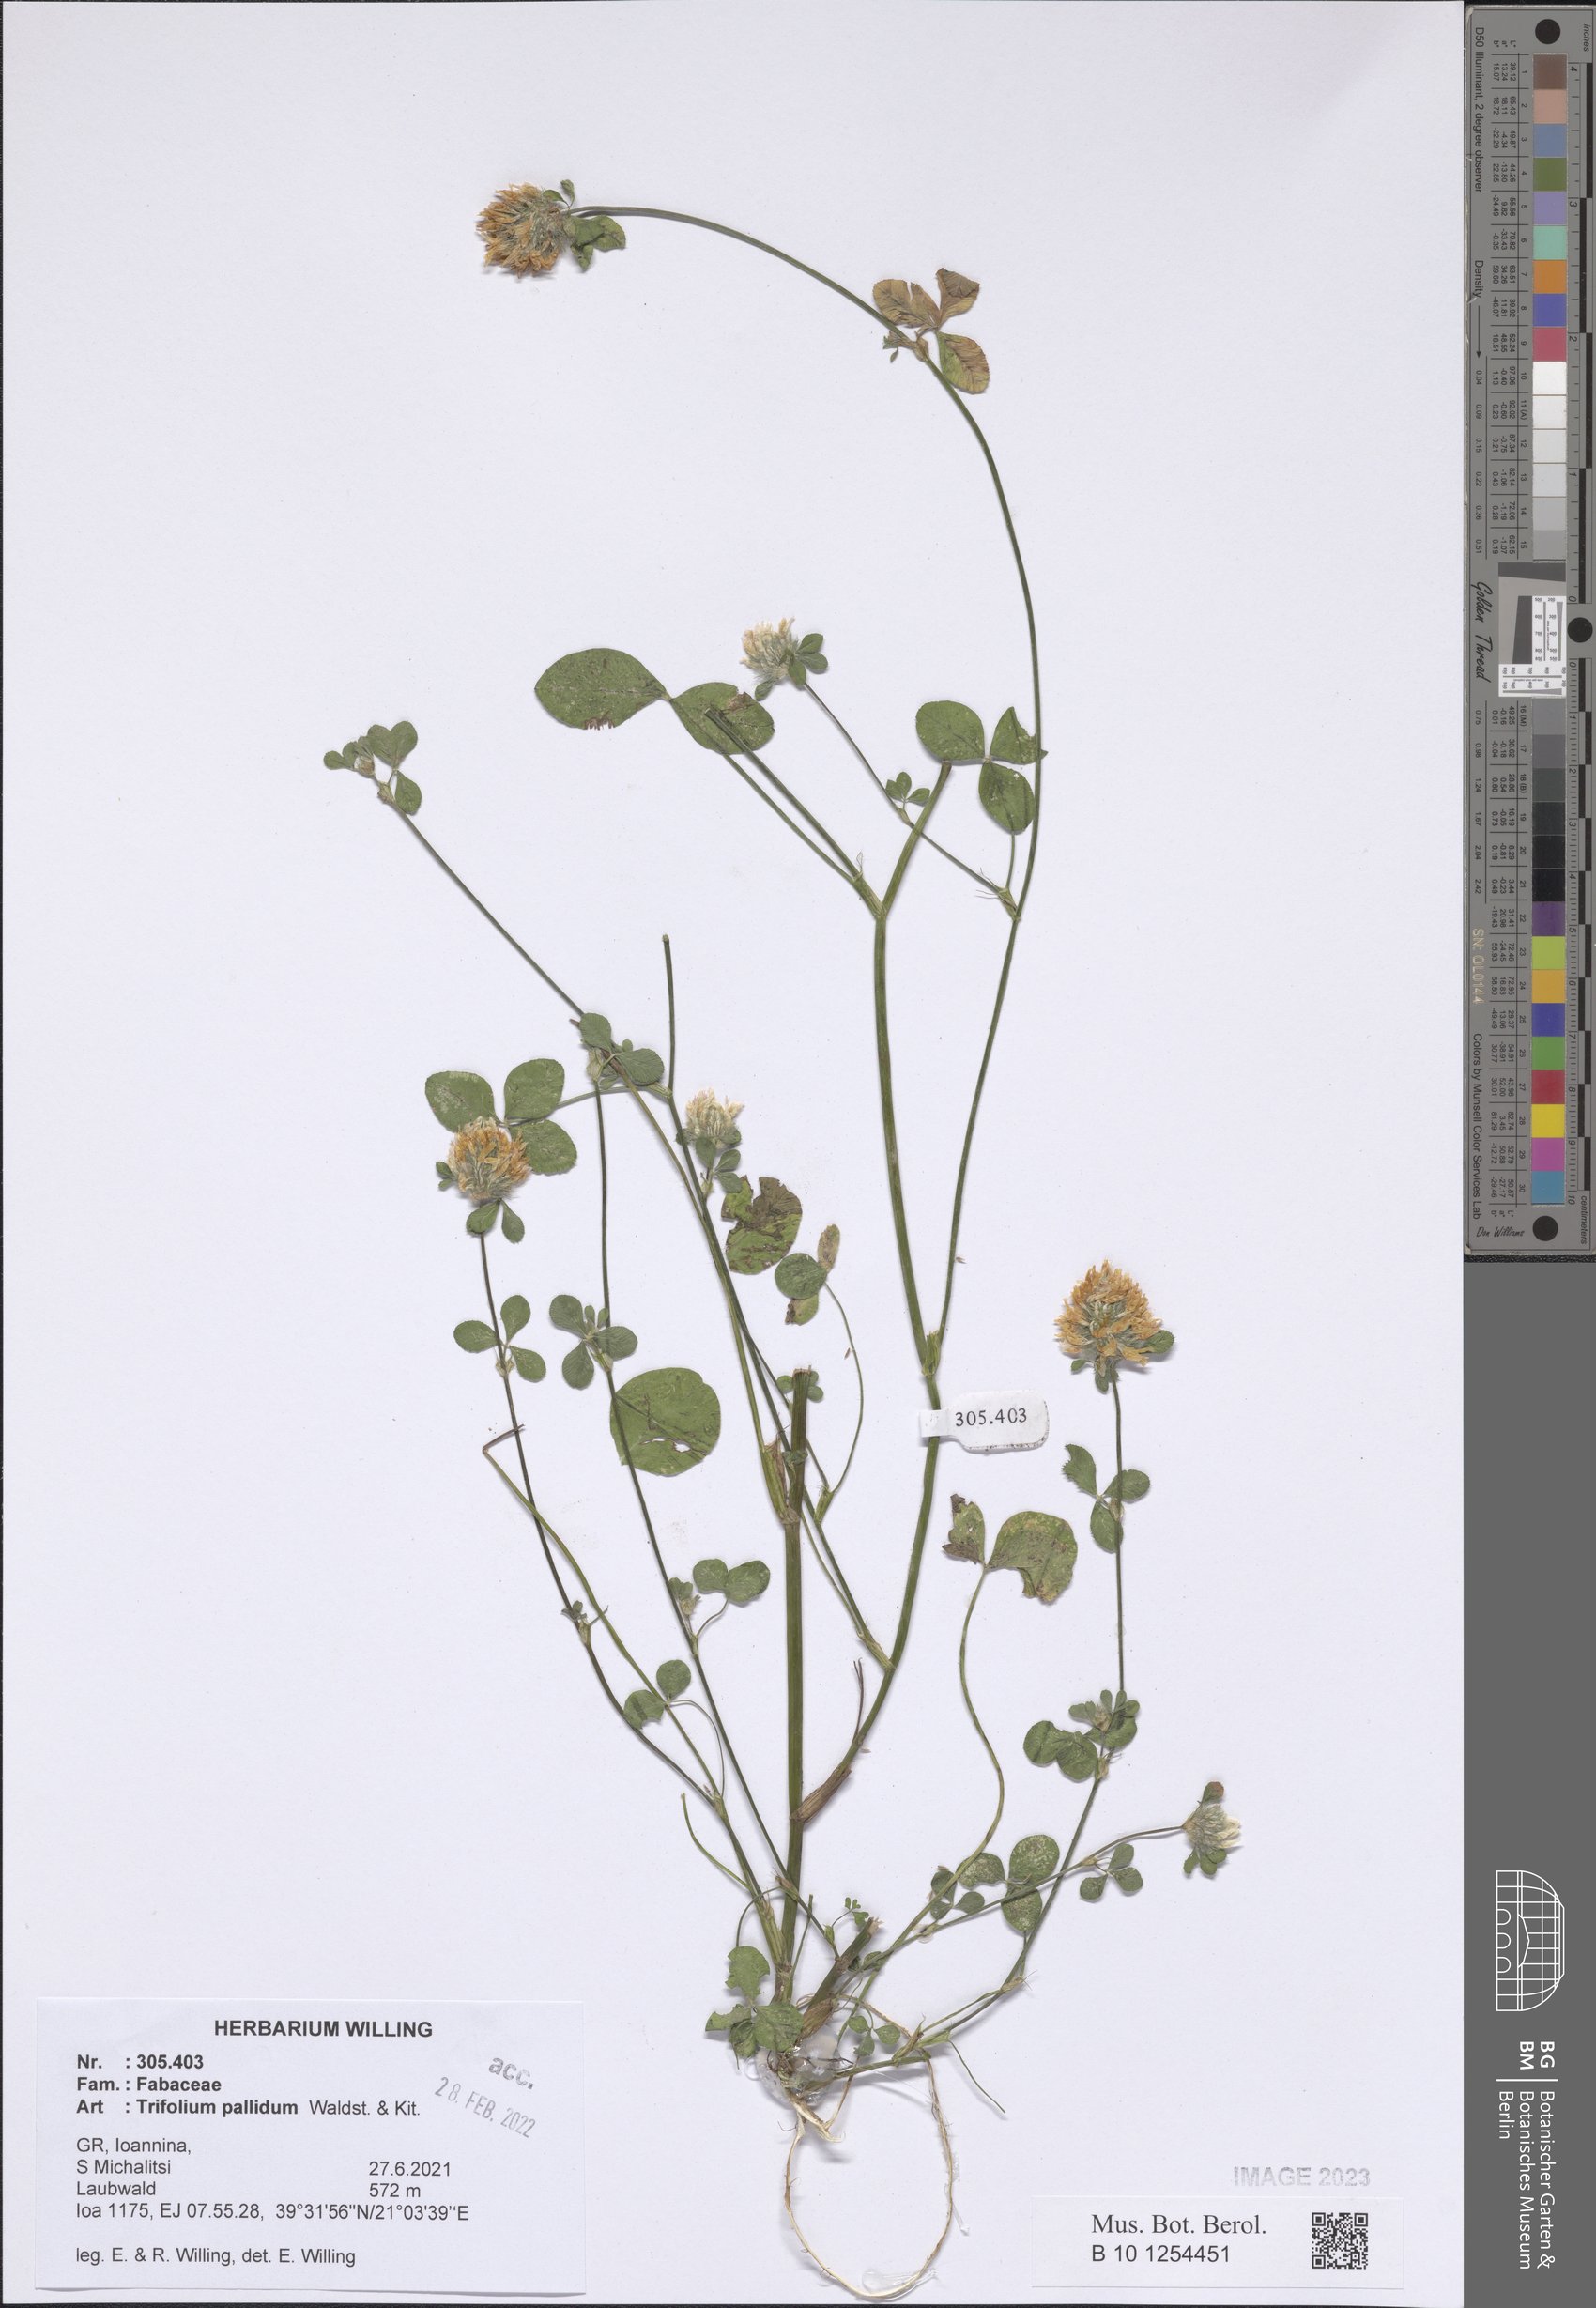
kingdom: Plantae
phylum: Tracheophyta
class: Magnoliopsida
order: Fabales
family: Fabaceae
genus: Trifolium
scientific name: Trifolium pallidum
